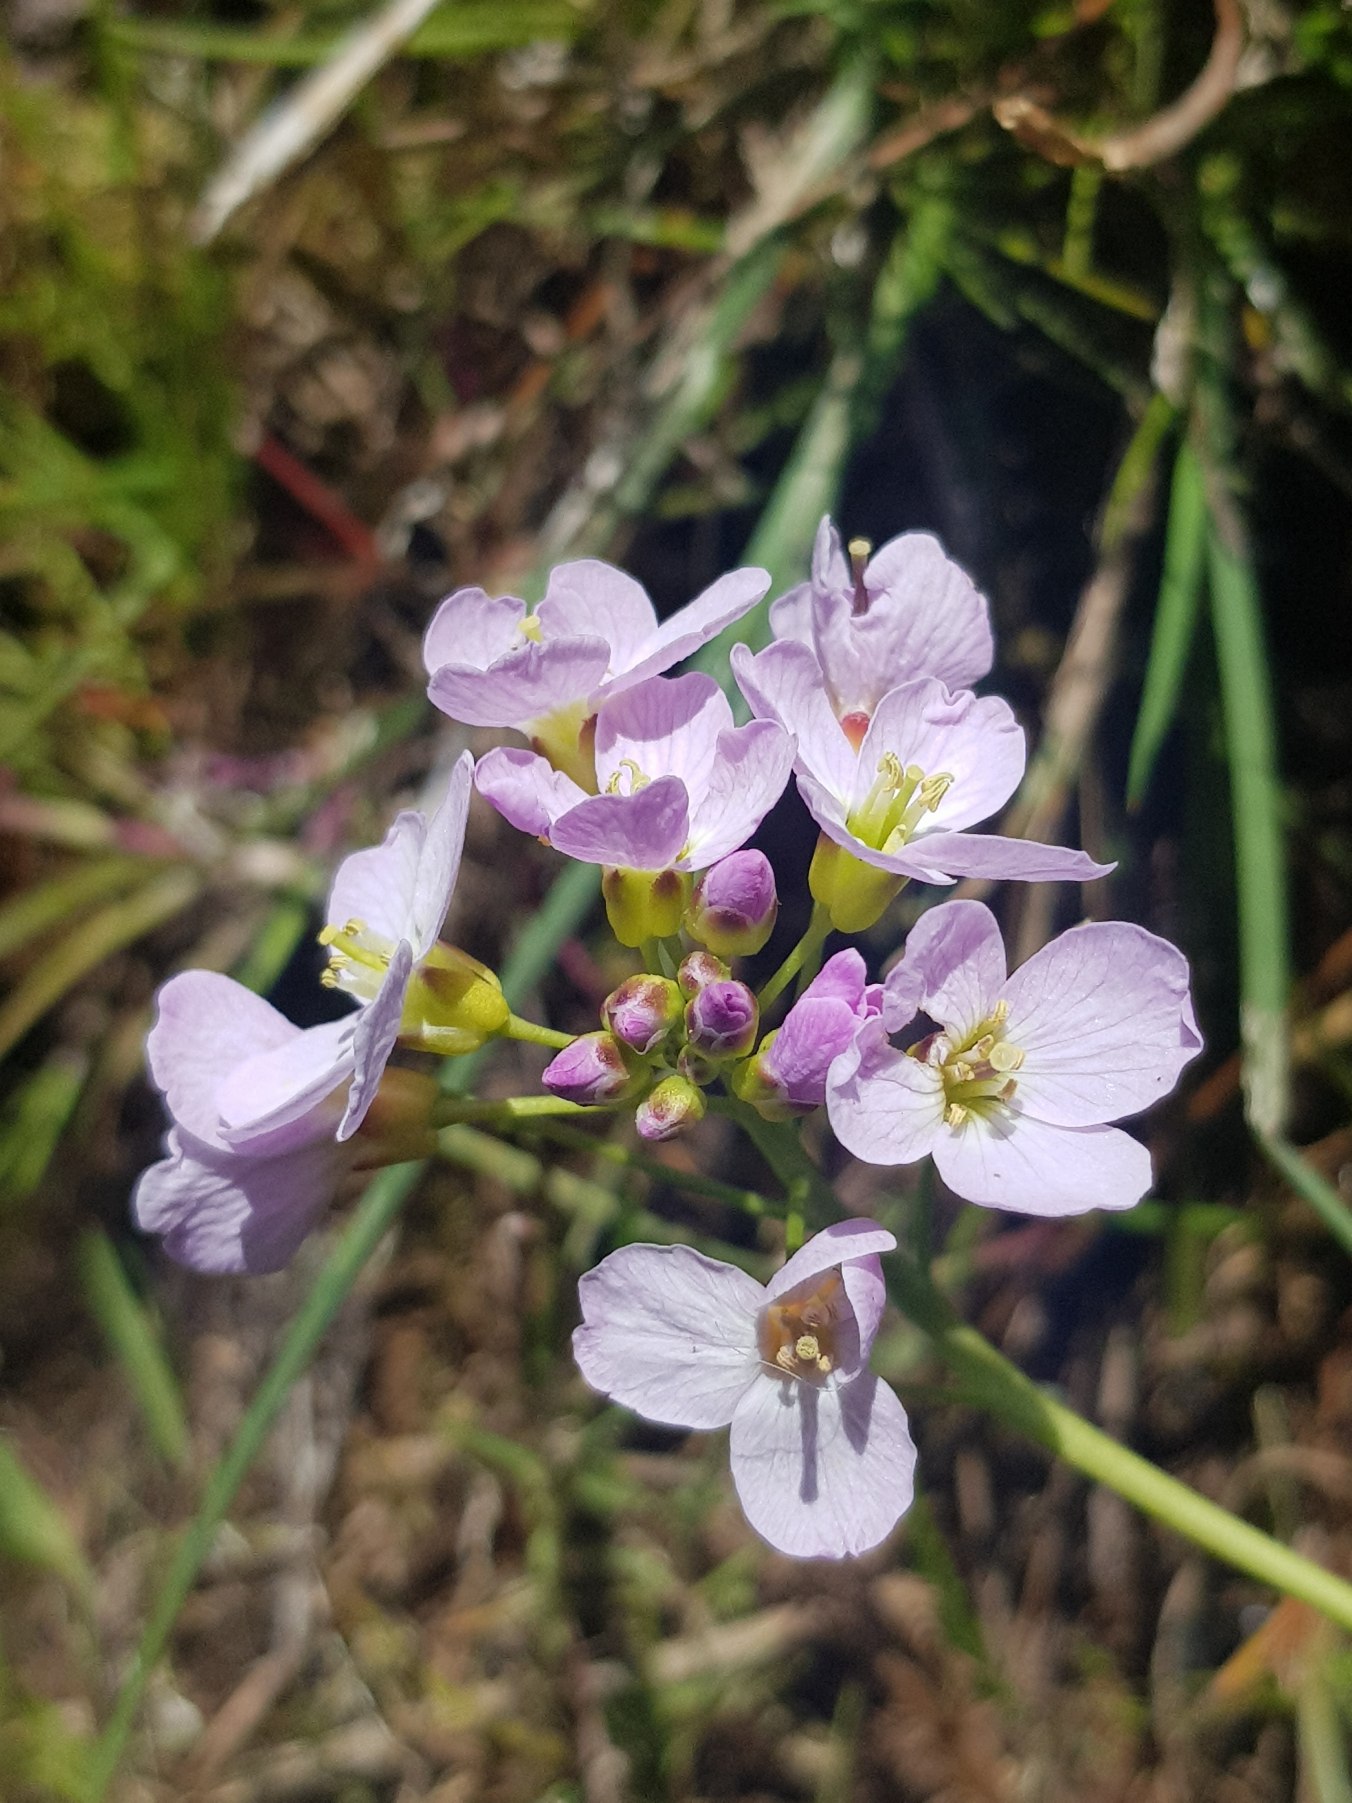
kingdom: Plantae
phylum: Tracheophyta
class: Magnoliopsida
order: Brassicales
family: Brassicaceae
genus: Cardamine
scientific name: Cardamine pratensis
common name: Engkarse
